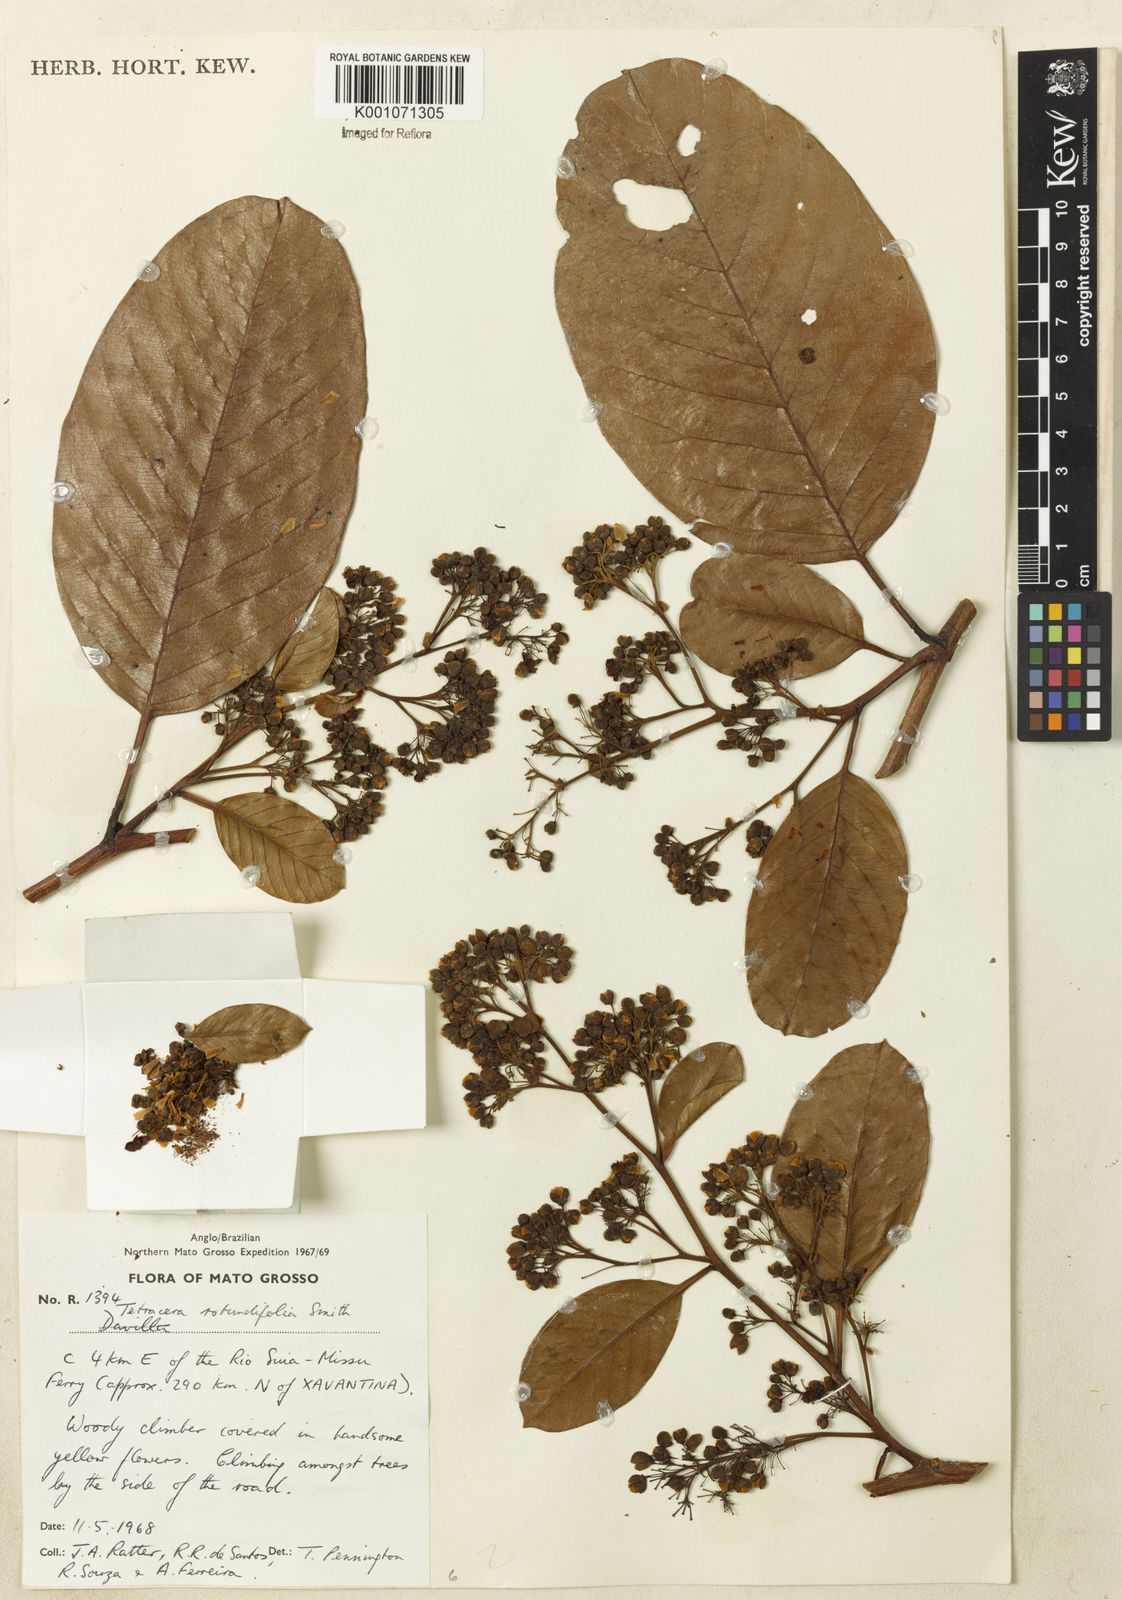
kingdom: Plantae
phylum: Tracheophyta
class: Magnoliopsida
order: Dilleniales
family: Dilleniaceae
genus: Tetracera
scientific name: Tetracera rotundifolia
